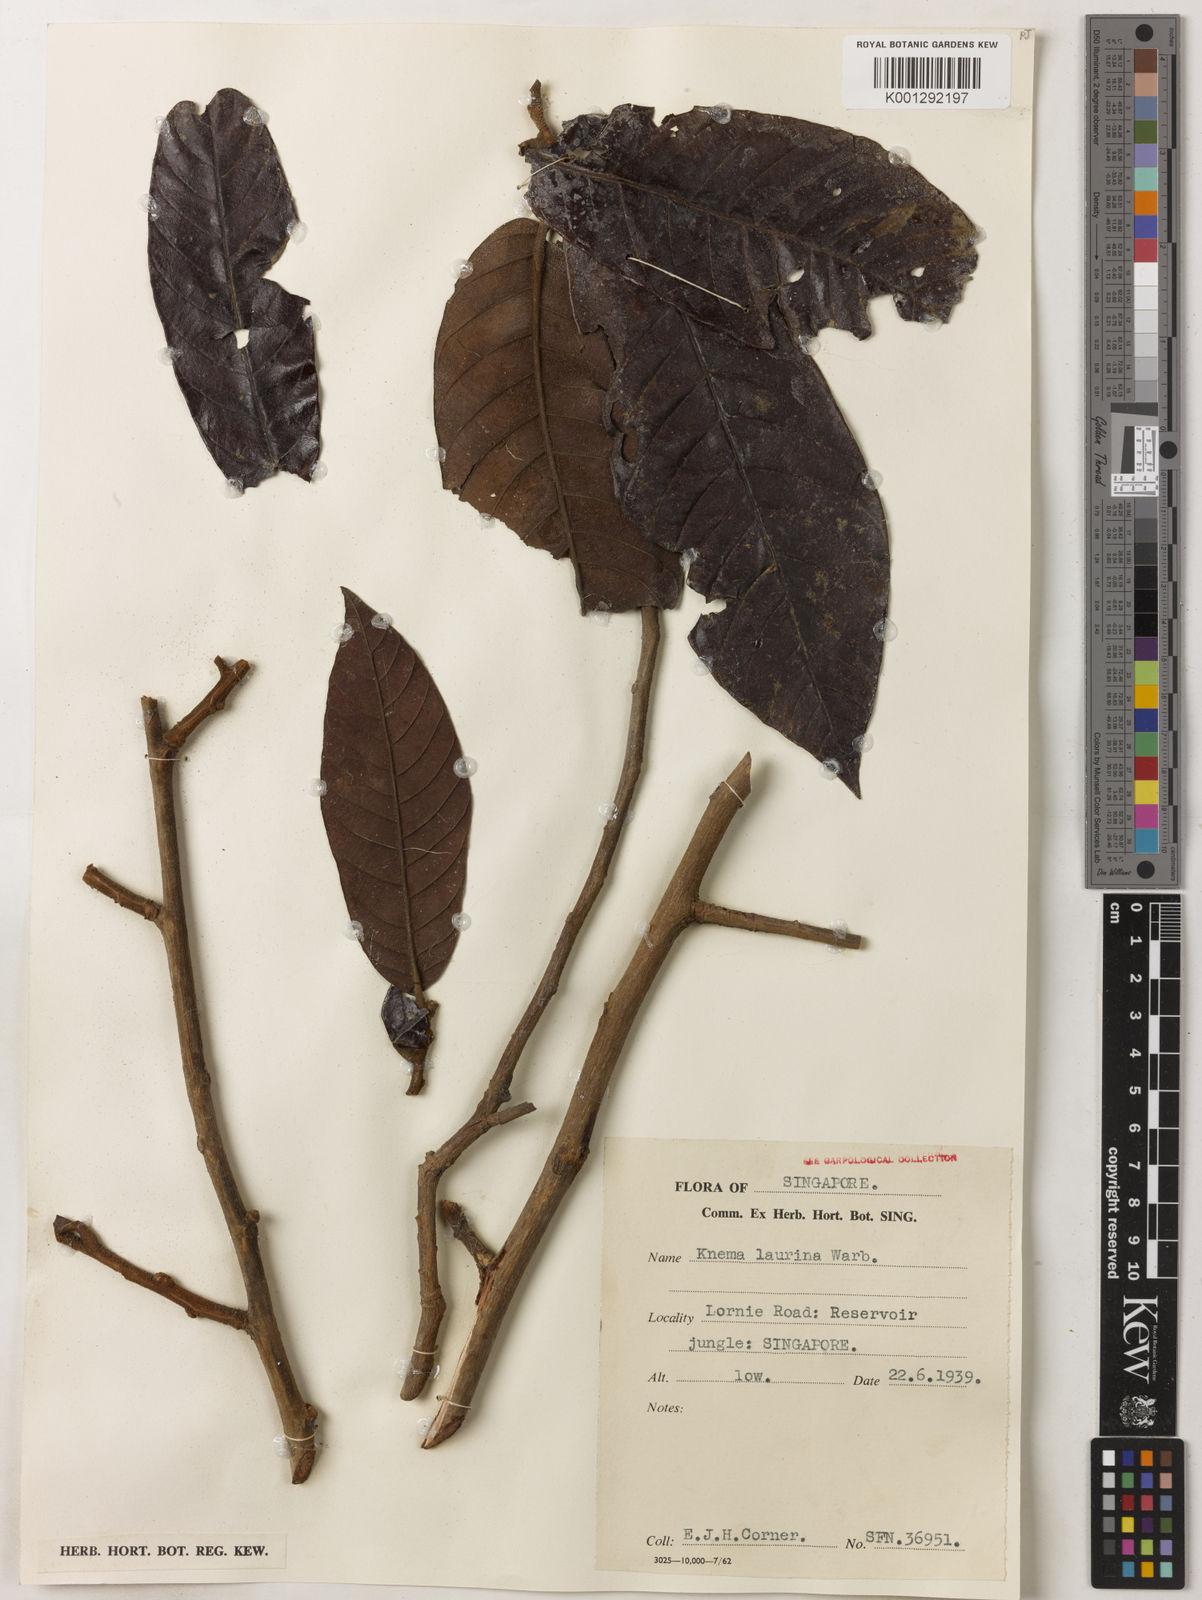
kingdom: Plantae
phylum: Tracheophyta
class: Magnoliopsida
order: Magnoliales
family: Myristicaceae
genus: Knema
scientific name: Knema laurina
